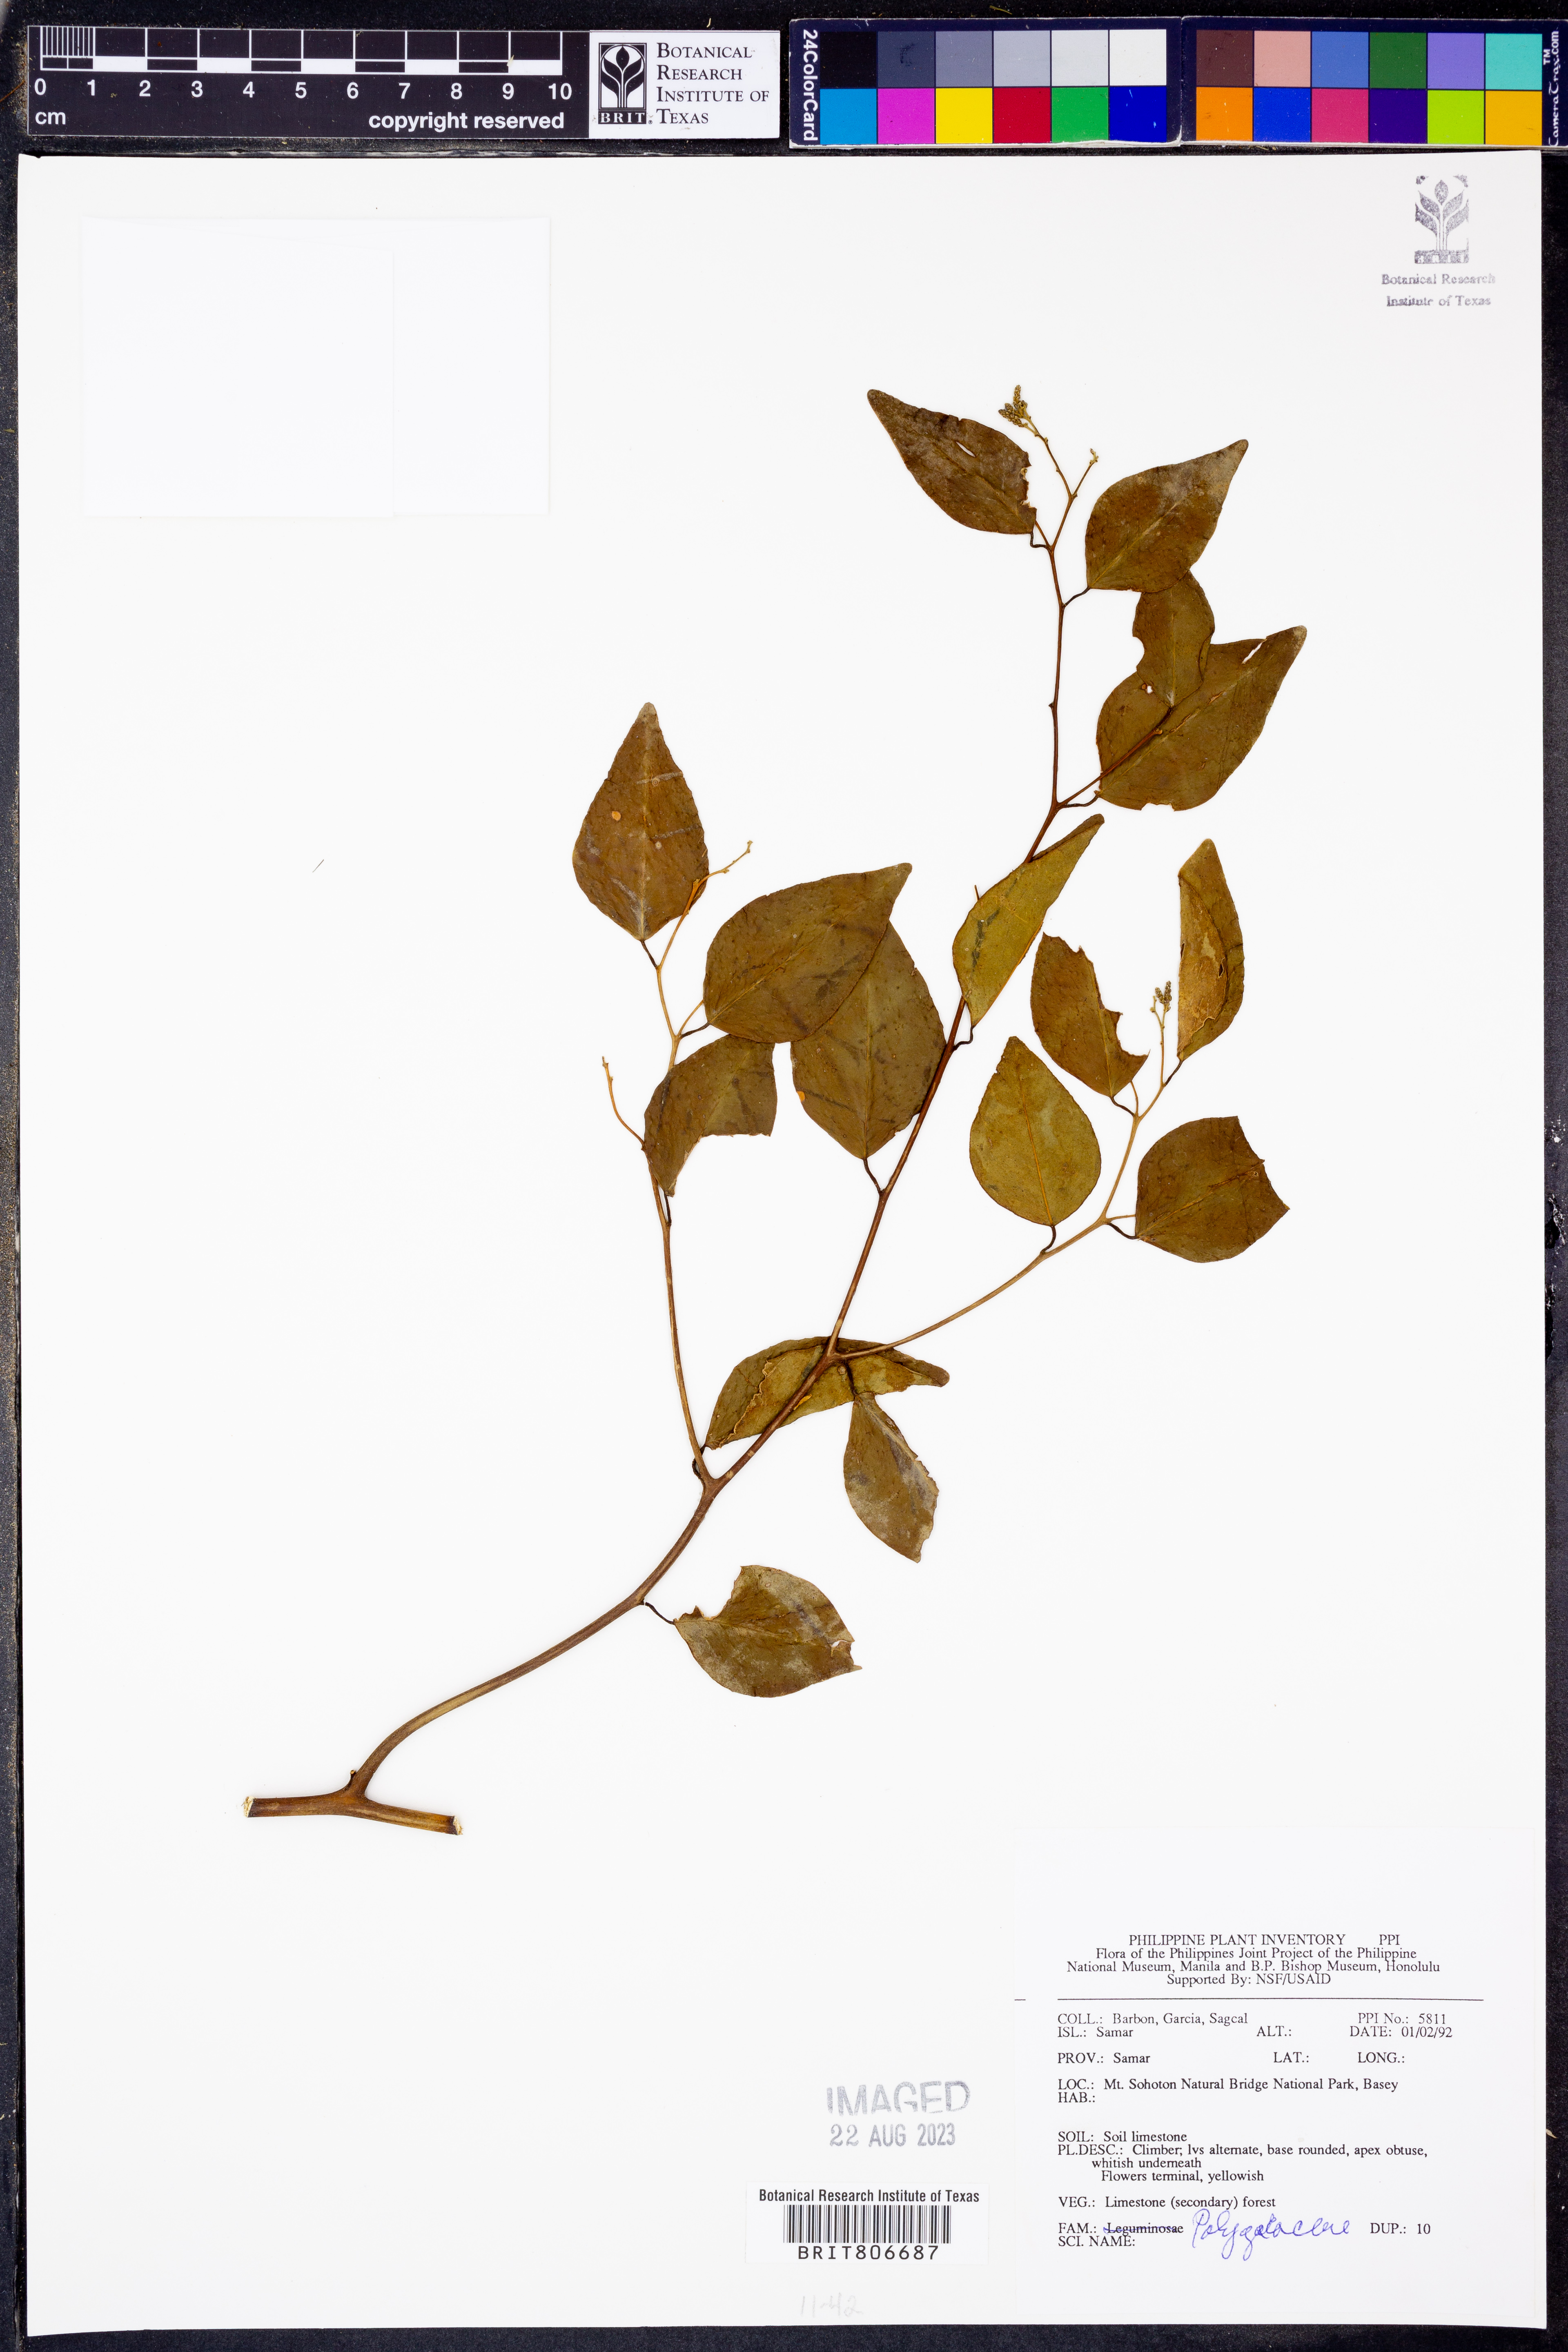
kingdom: Plantae
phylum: Tracheophyta
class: Magnoliopsida
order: Fabales
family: Polygalaceae
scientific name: Polygalaceae
